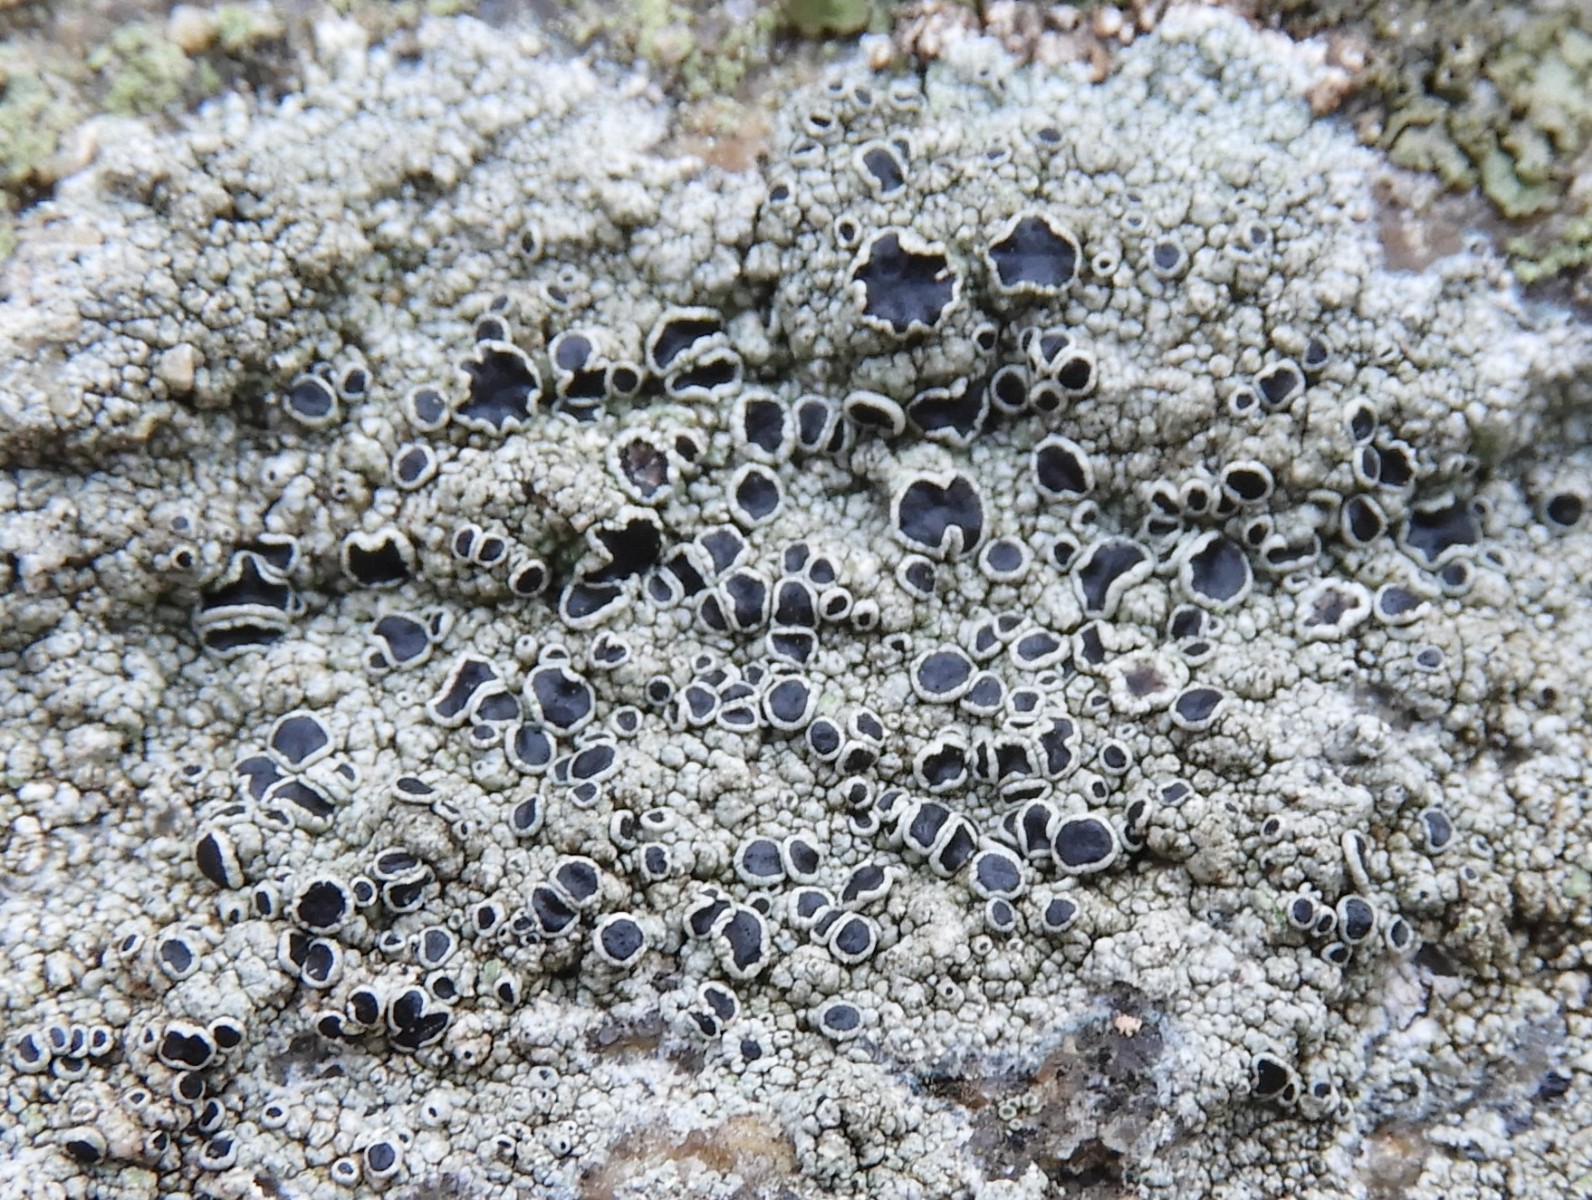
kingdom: Fungi
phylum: Ascomycota
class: Lecanoromycetes
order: Lecanorales
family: Tephromelataceae
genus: Tephromela
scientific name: Tephromela atra
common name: sortfrugtet kantskivelav
